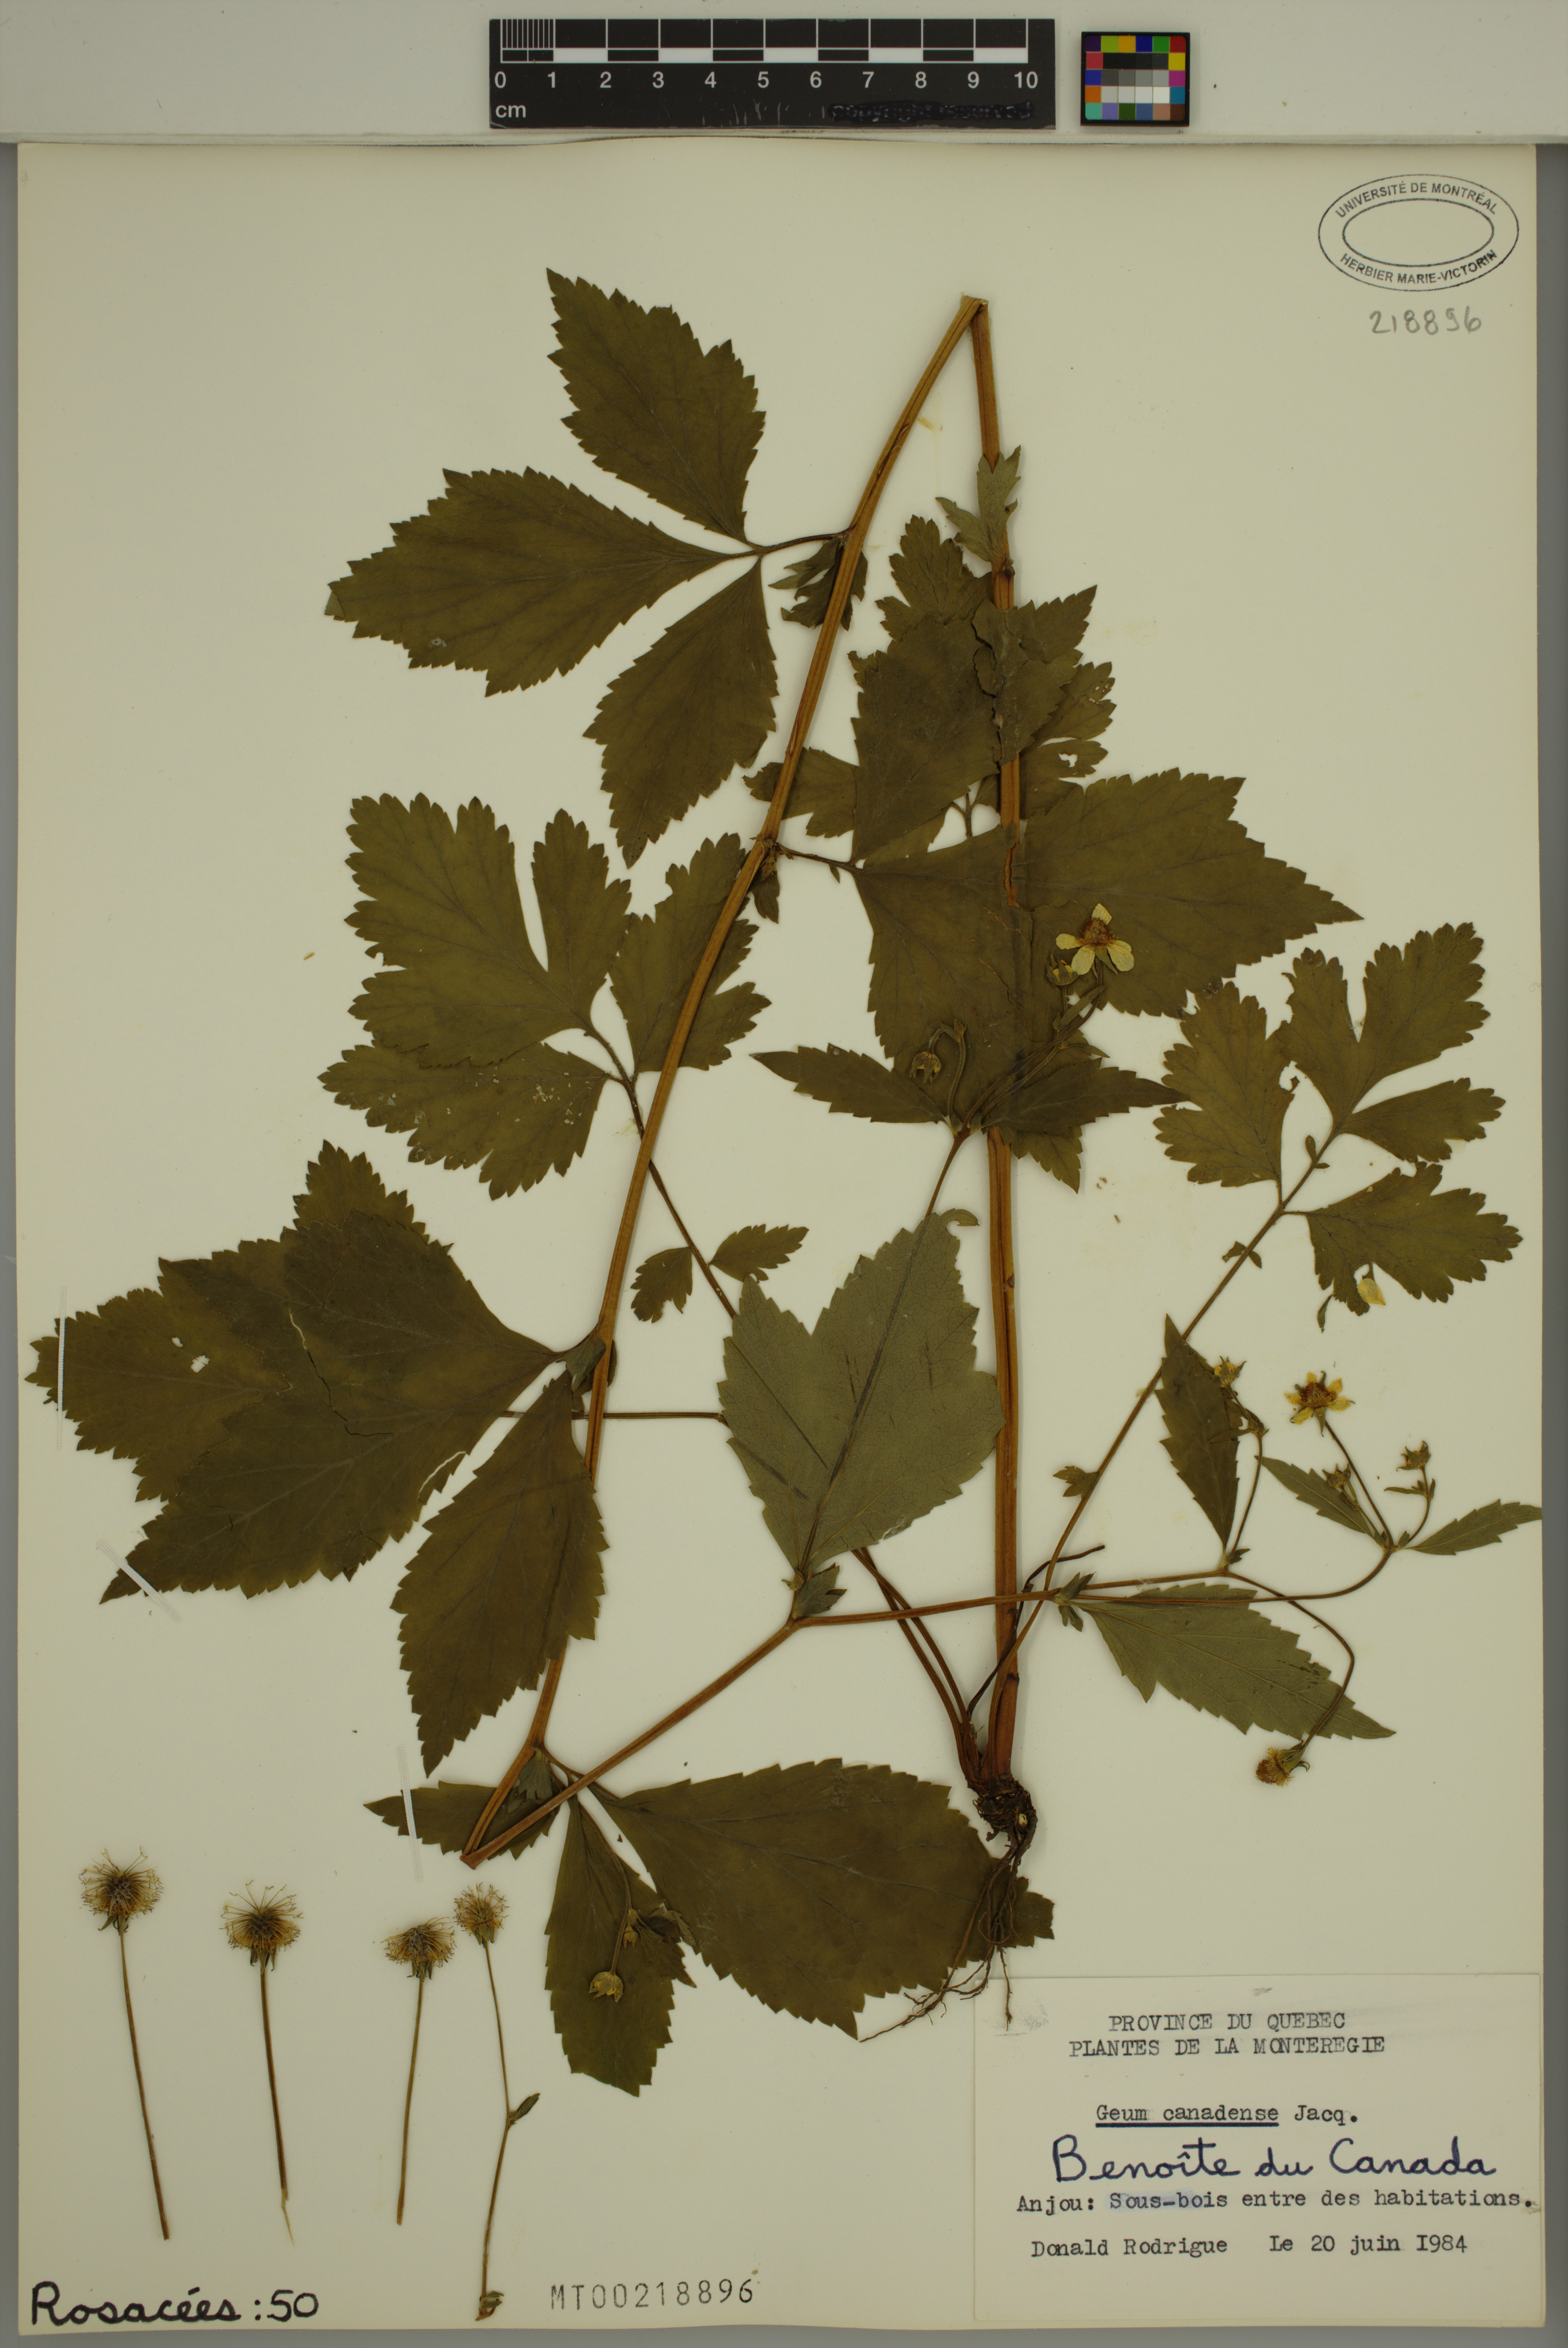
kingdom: Plantae
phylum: Tracheophyta
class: Magnoliopsida
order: Rosales
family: Rosaceae
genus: Geum
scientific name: Geum canadense
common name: White avens
